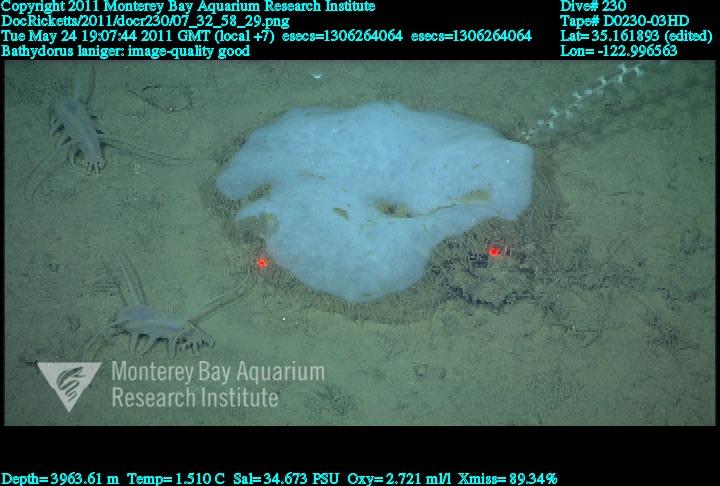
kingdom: Animalia
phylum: Porifera
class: Hexactinellida
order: Lyssacinosida
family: Rossellidae
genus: Bathydorus
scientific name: Bathydorus laniger
